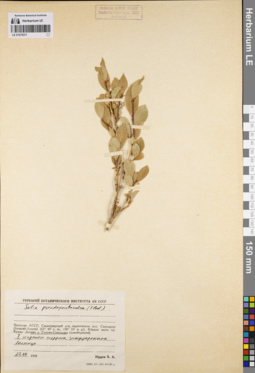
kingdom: Plantae
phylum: Tracheophyta
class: Magnoliopsida
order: Malpighiales
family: Salicaceae
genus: Salix
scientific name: Salix pseudopentandra
